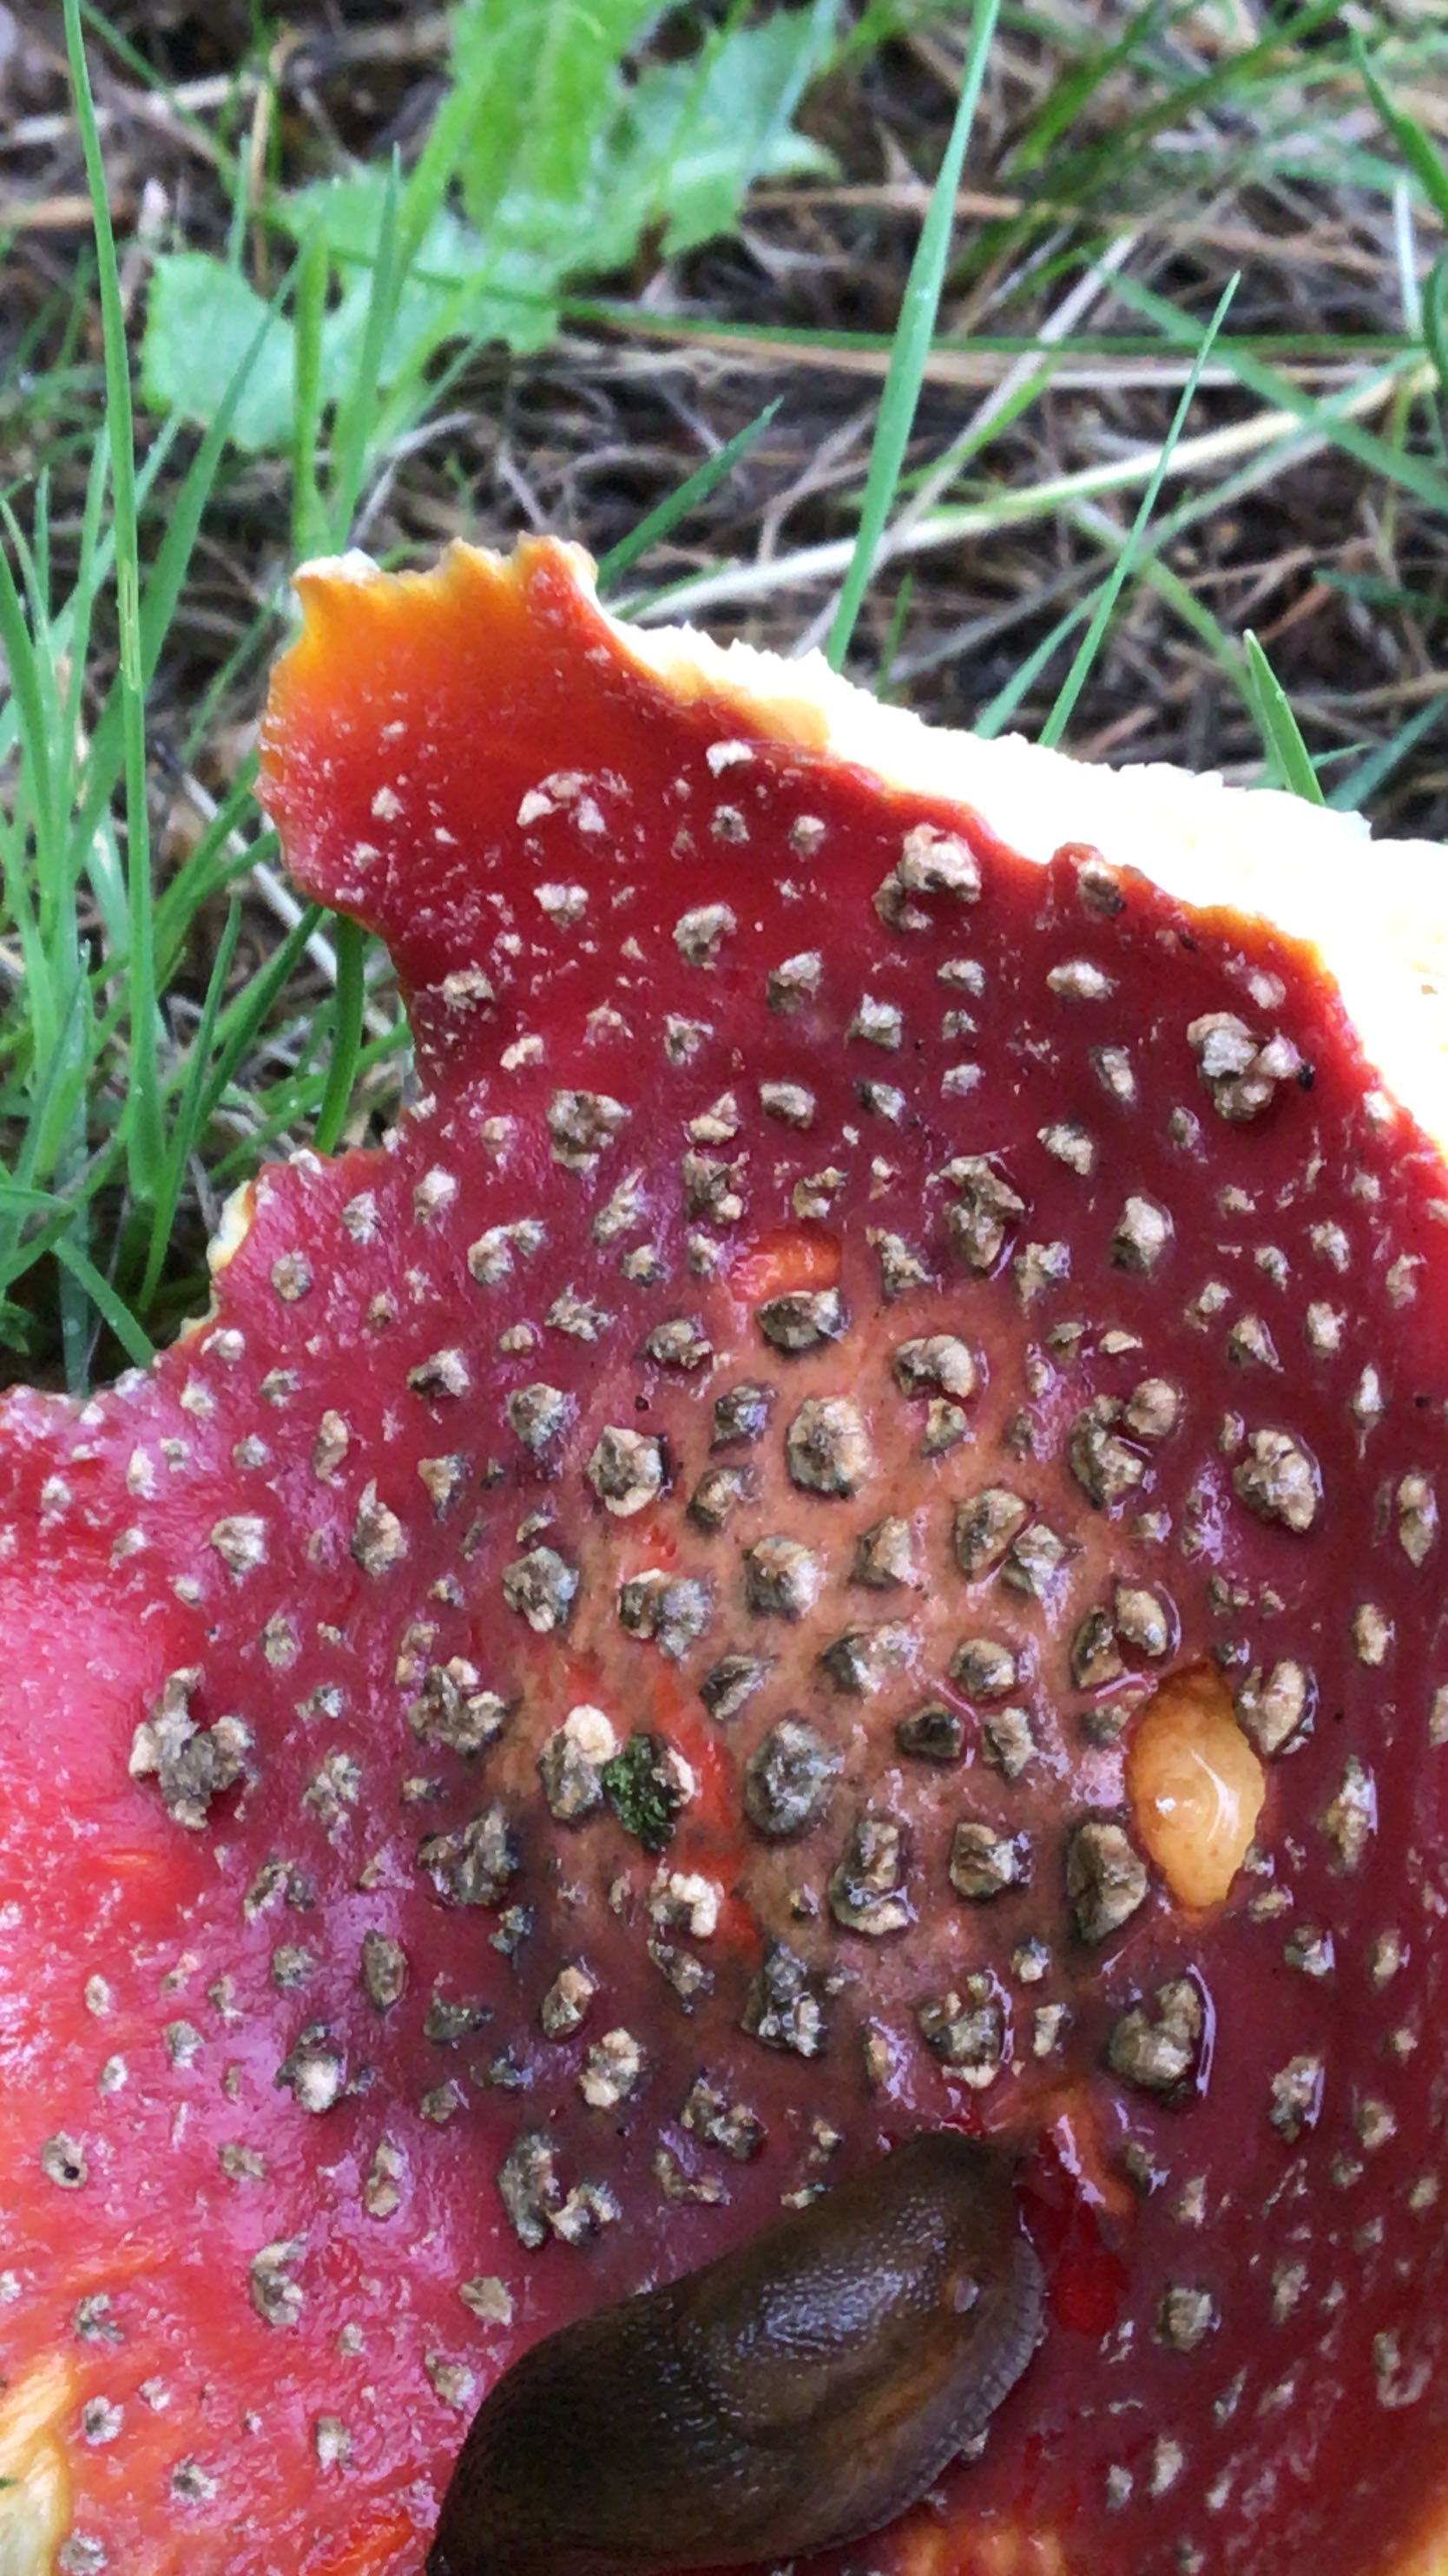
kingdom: Fungi
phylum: Basidiomycota
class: Agaricomycetes
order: Agaricales
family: Amanitaceae
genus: Amanita
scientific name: Amanita muscaria
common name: rød fluesvamp
